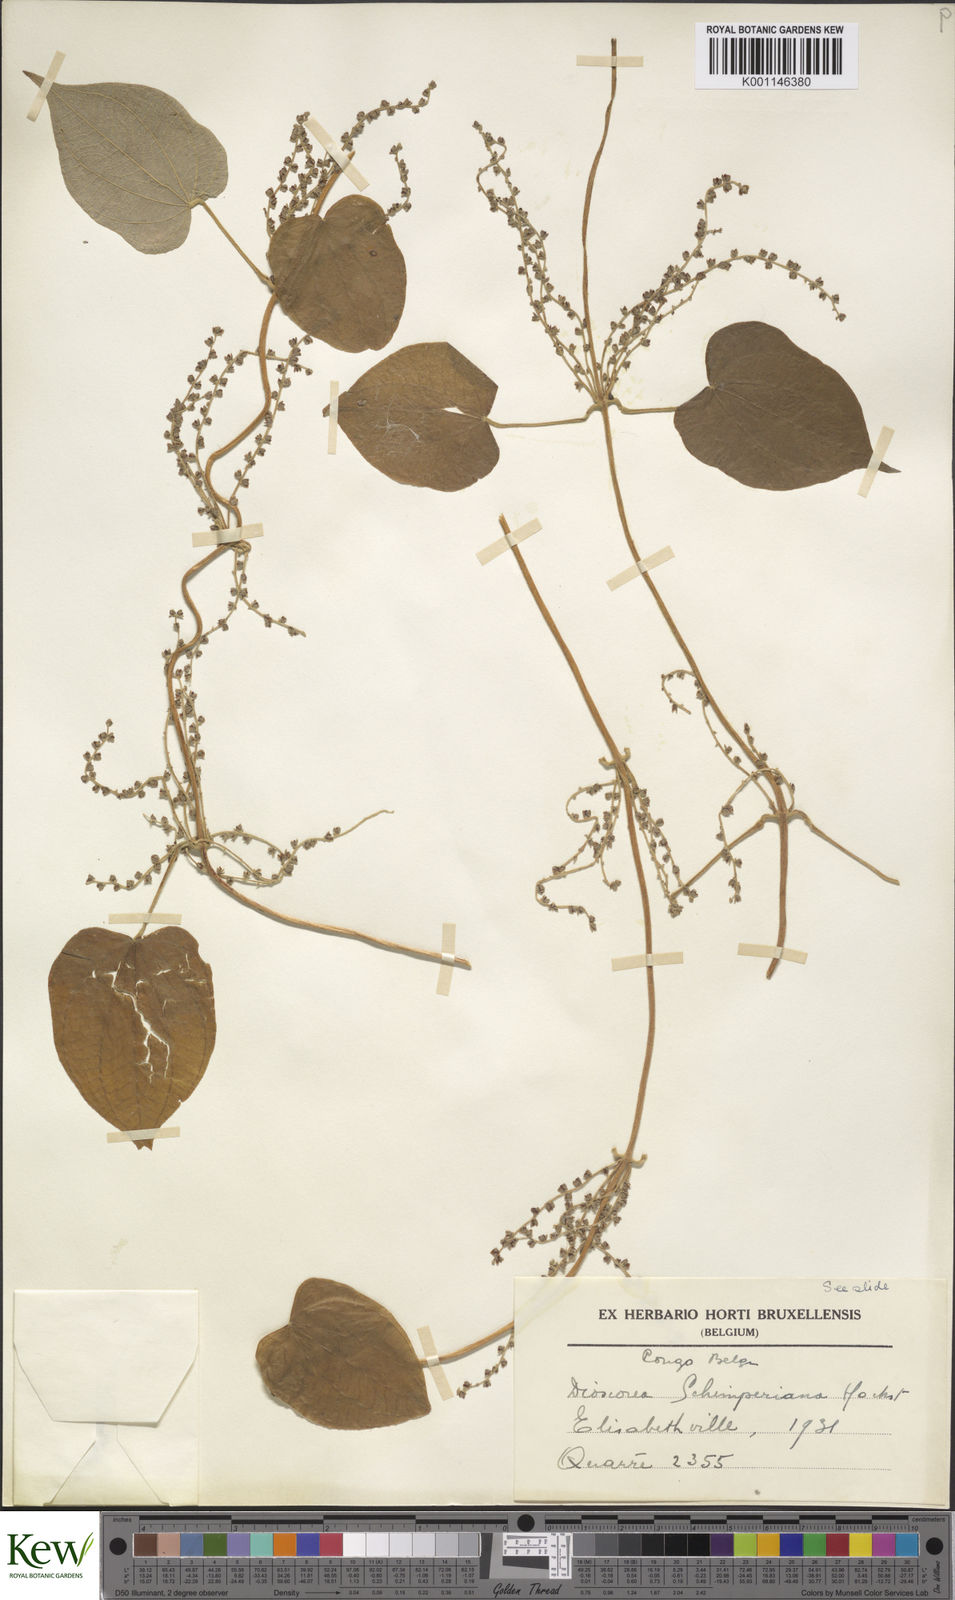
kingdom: Plantae
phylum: Tracheophyta
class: Liliopsida
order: Dioscoreales
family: Dioscoreaceae
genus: Dioscorea
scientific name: Dioscorea schimperiana
